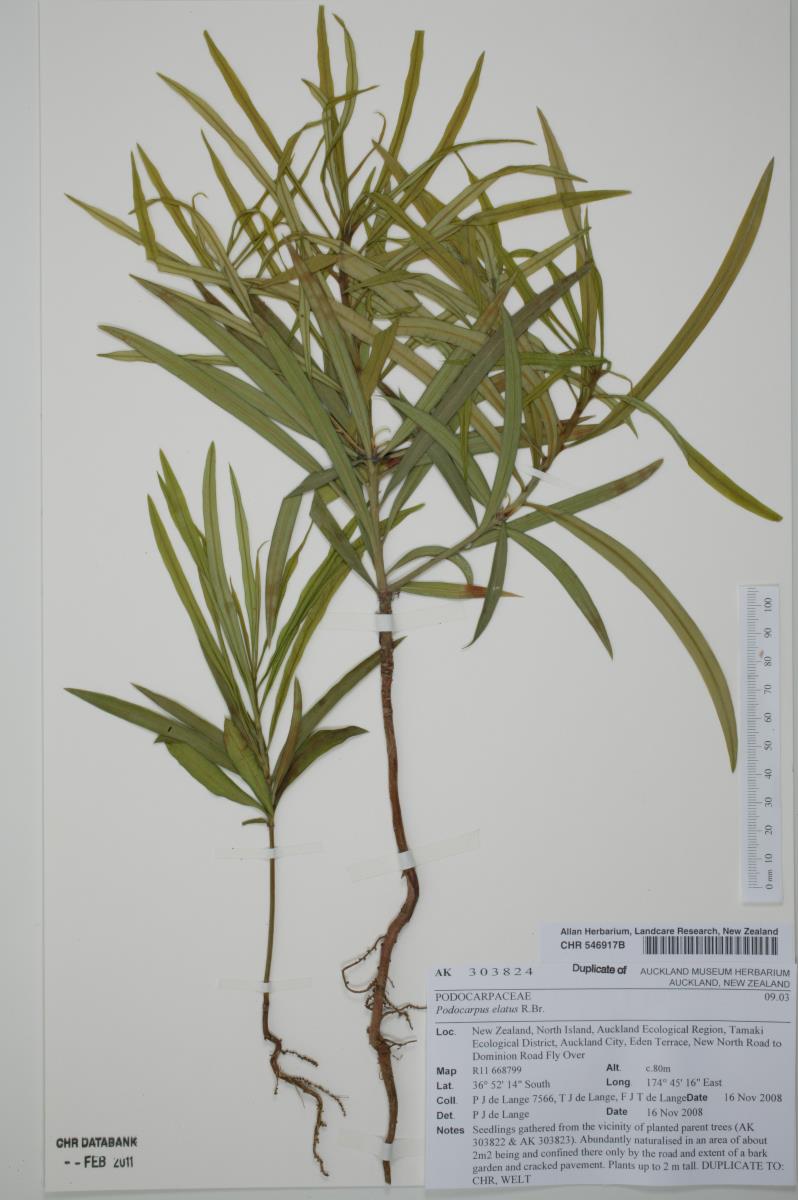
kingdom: Plantae
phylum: Tracheophyta
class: Pinopsida
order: Pinales
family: Podocarpaceae
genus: Podocarpus
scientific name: Podocarpus elatus
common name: Plum pine
